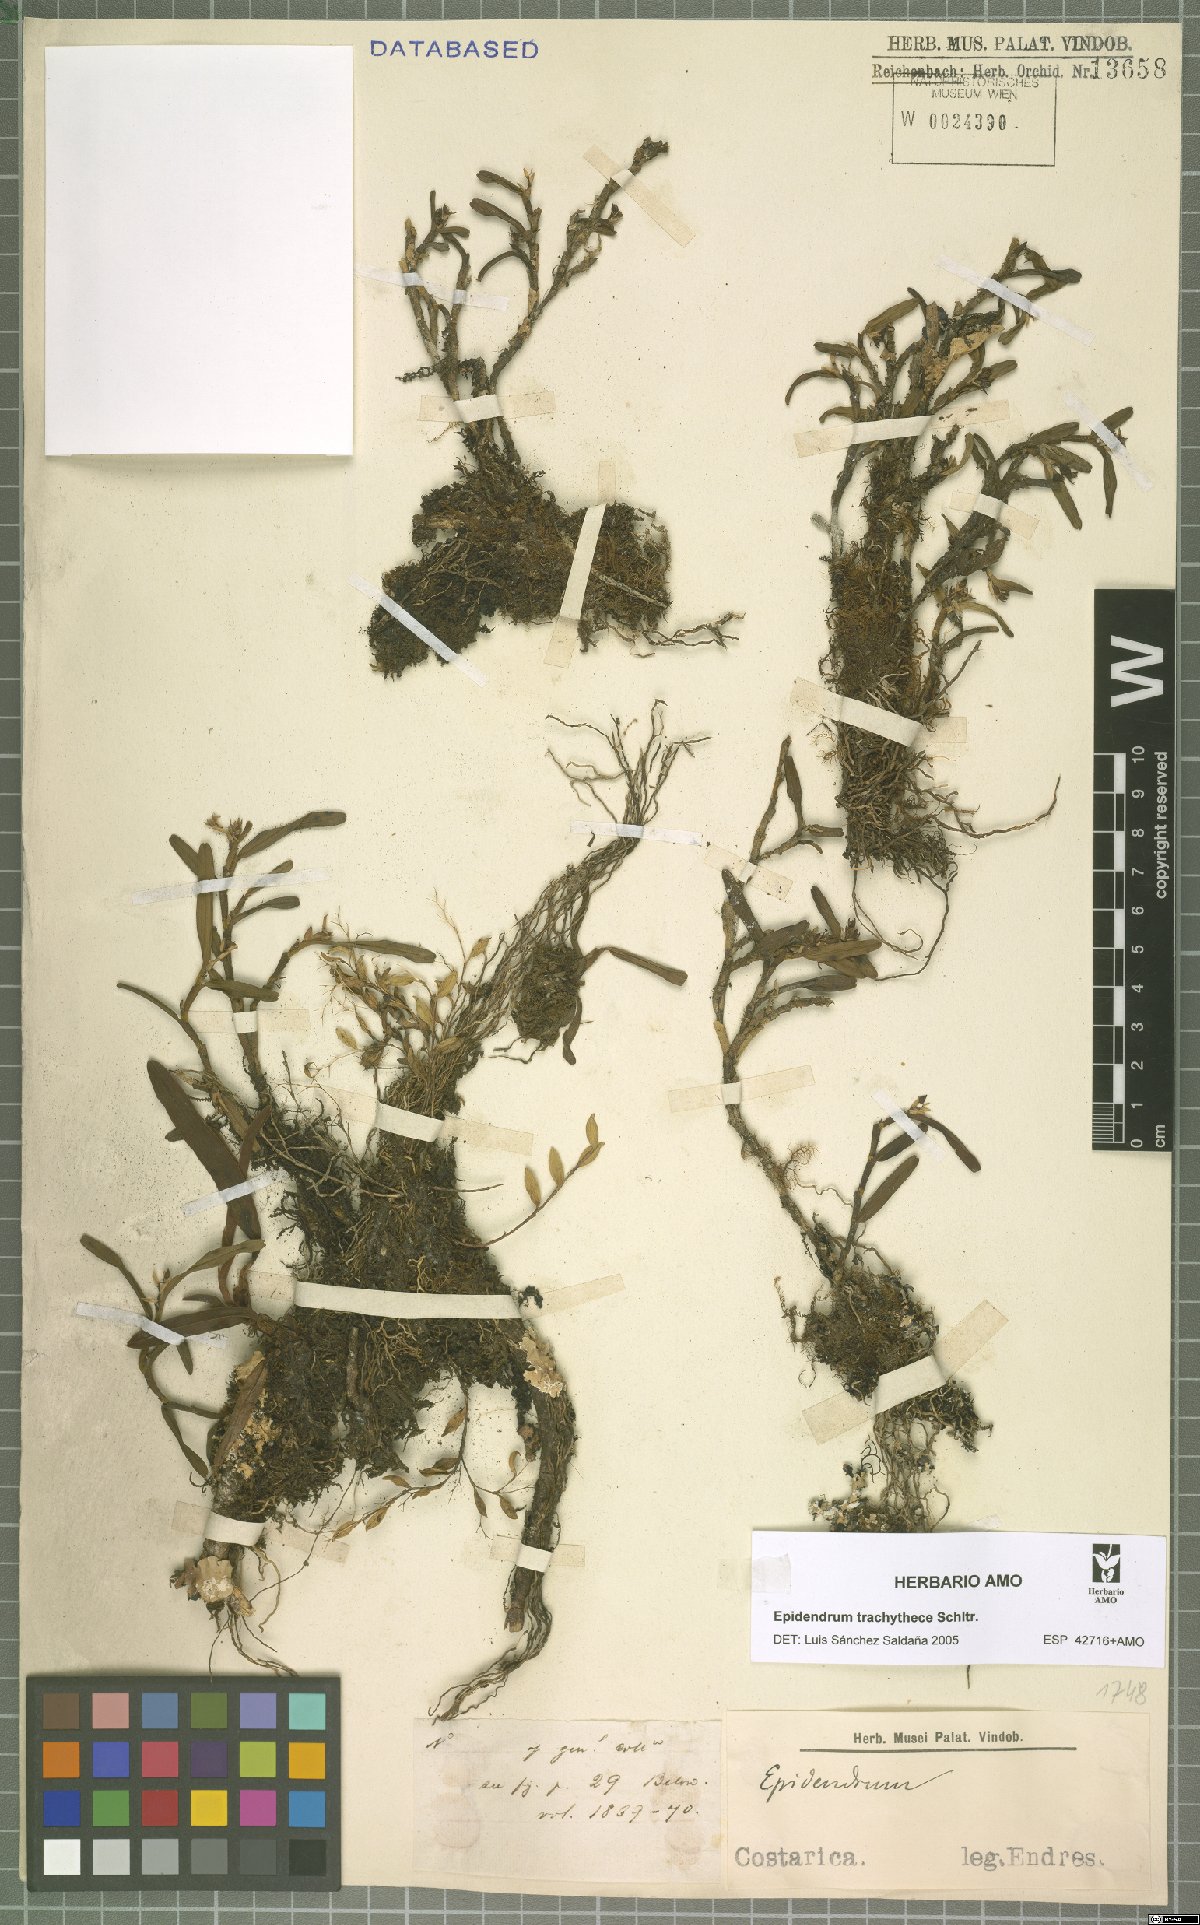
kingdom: Plantae
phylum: Tracheophyta
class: Liliopsida
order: Asparagales
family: Orchidaceae
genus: Epidendrum
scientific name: Epidendrum trachythece
